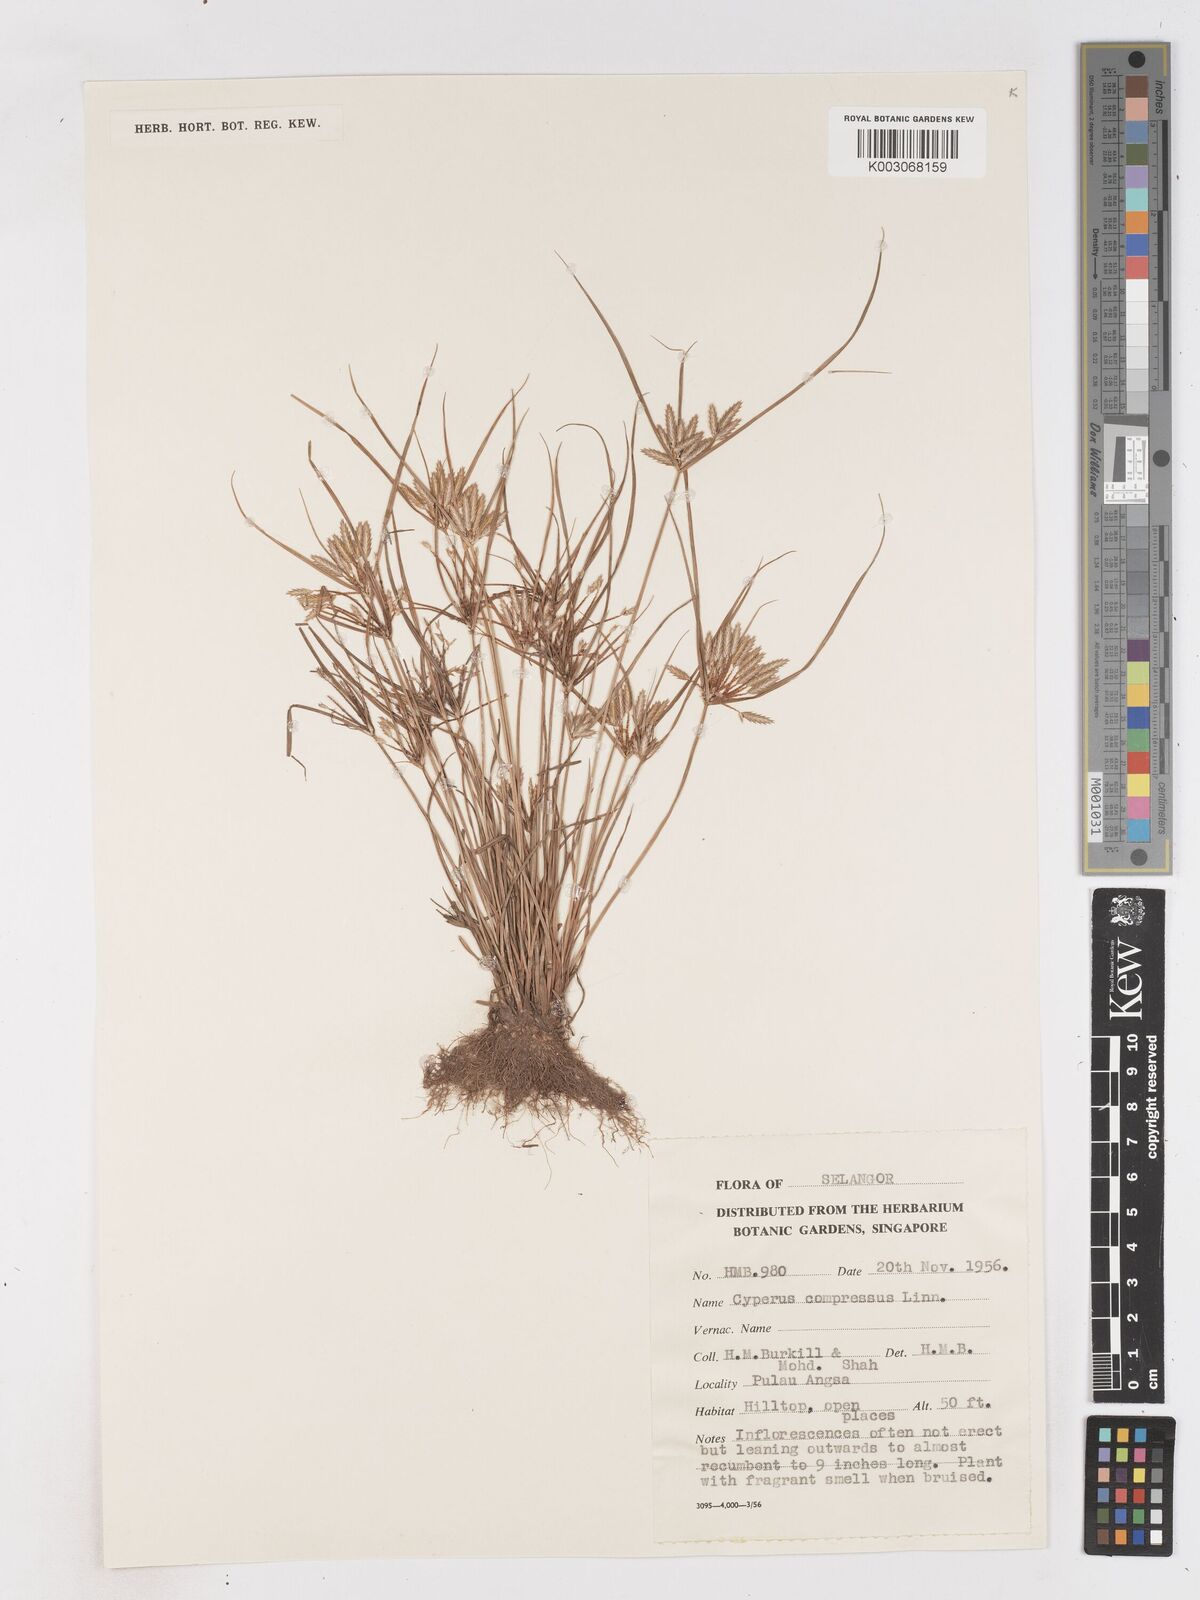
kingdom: Plantae
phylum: Tracheophyta
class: Liliopsida
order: Poales
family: Cyperaceae
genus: Cyperus
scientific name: Cyperus compressus
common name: Poorland flatsedge
